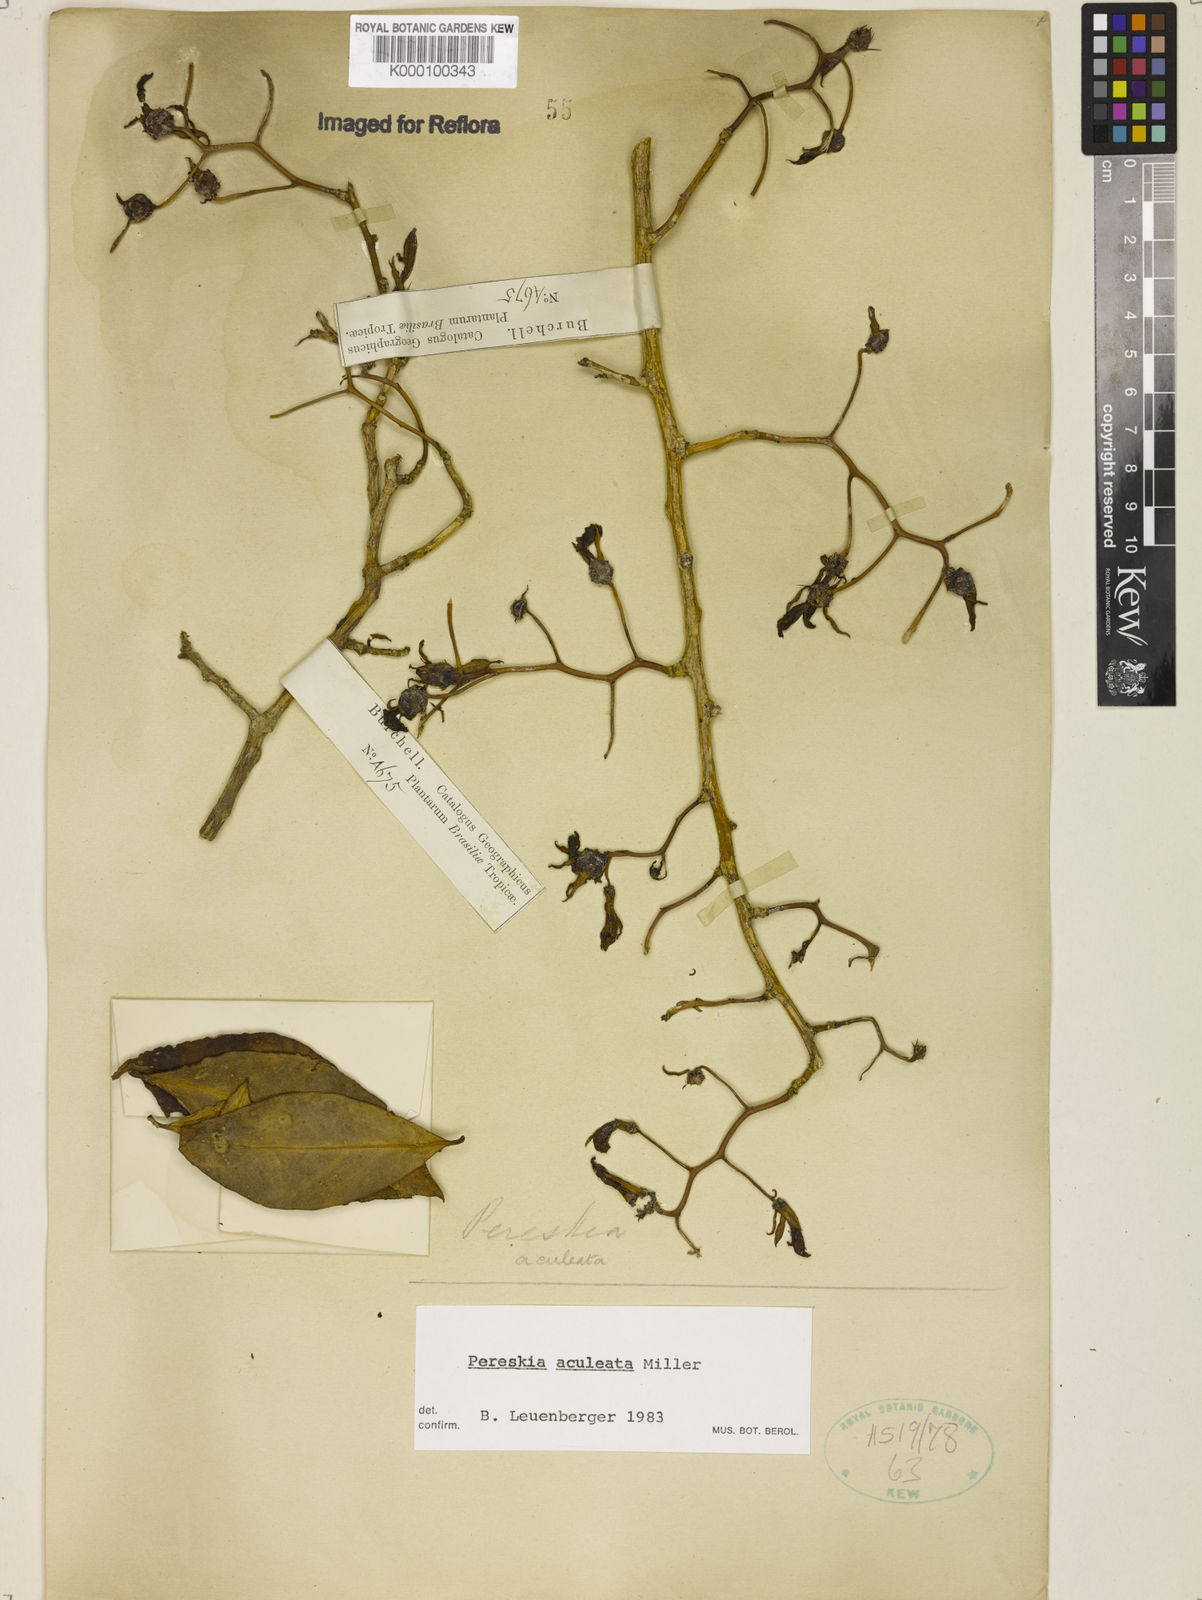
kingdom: Plantae
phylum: Tracheophyta
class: Magnoliopsida
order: Caryophyllales
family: Cactaceae
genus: Pereskia
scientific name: Pereskia aculeata
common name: Barbados gooseberry
